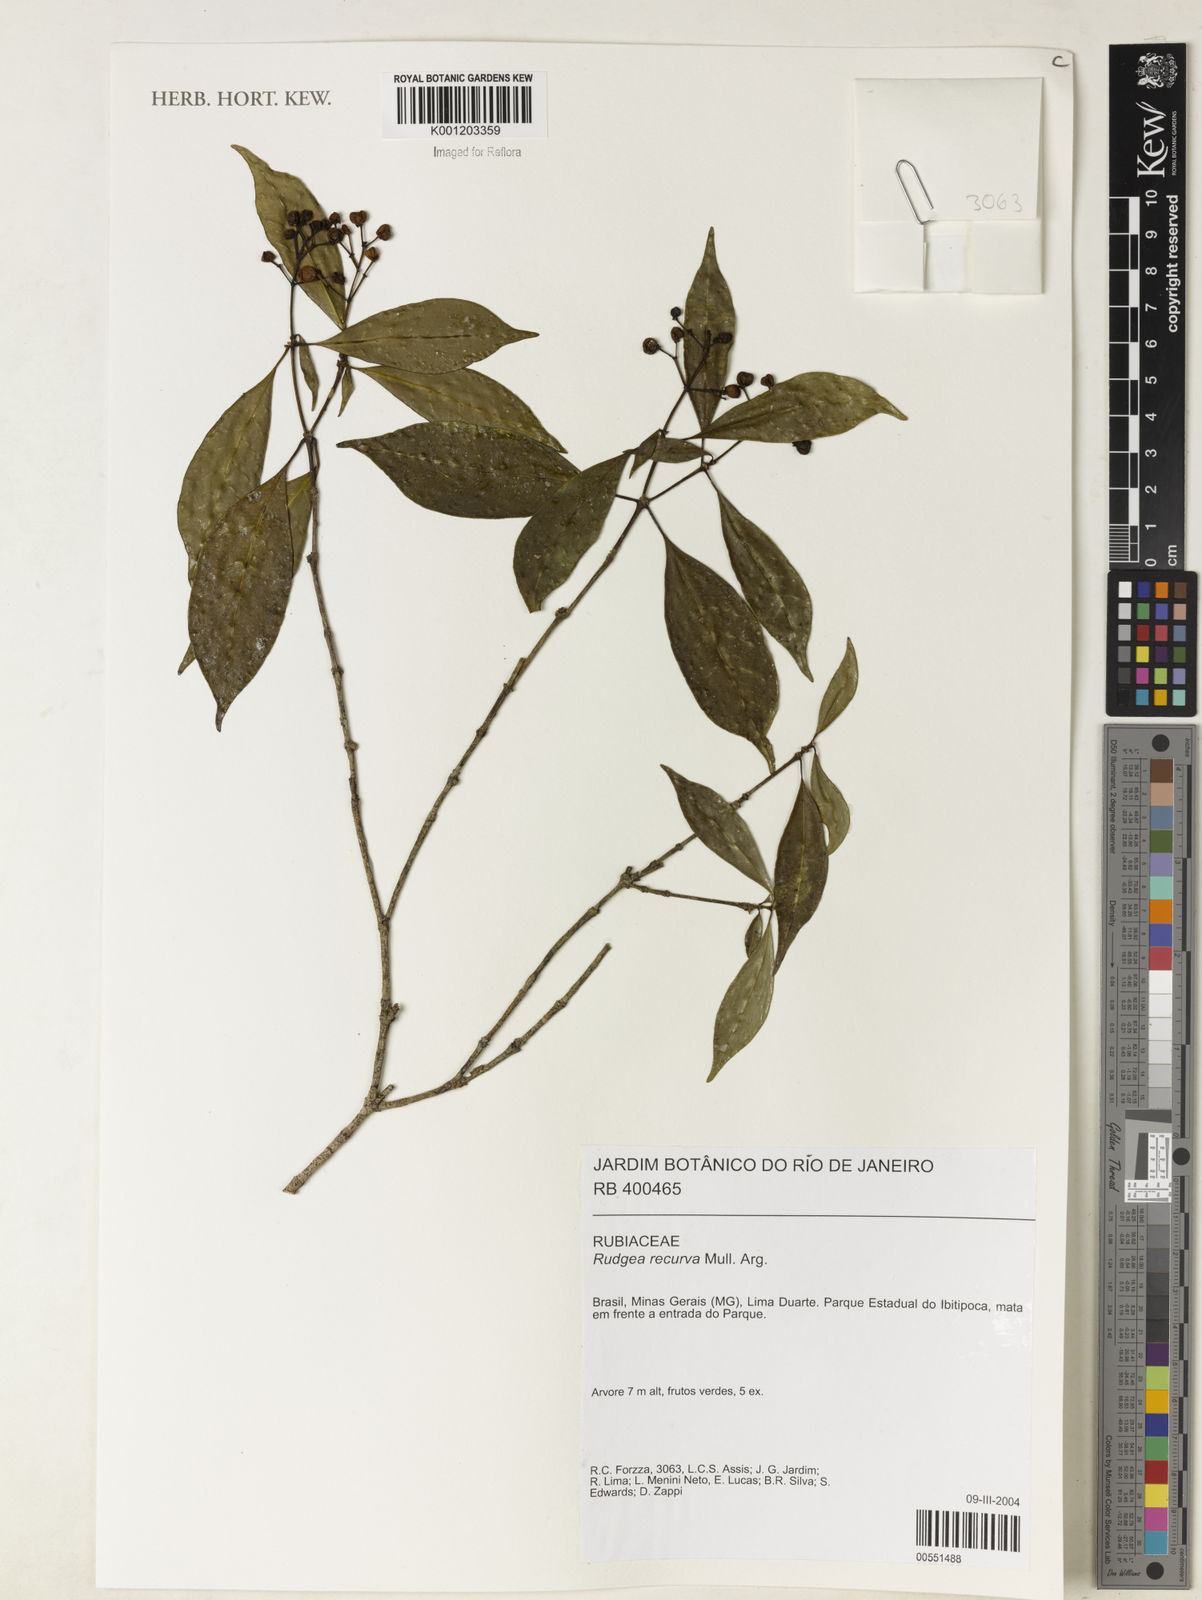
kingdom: Plantae
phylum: Tracheophyta
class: Magnoliopsida
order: Gentianales
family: Rubiaceae
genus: Rudgea
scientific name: Rudgea
